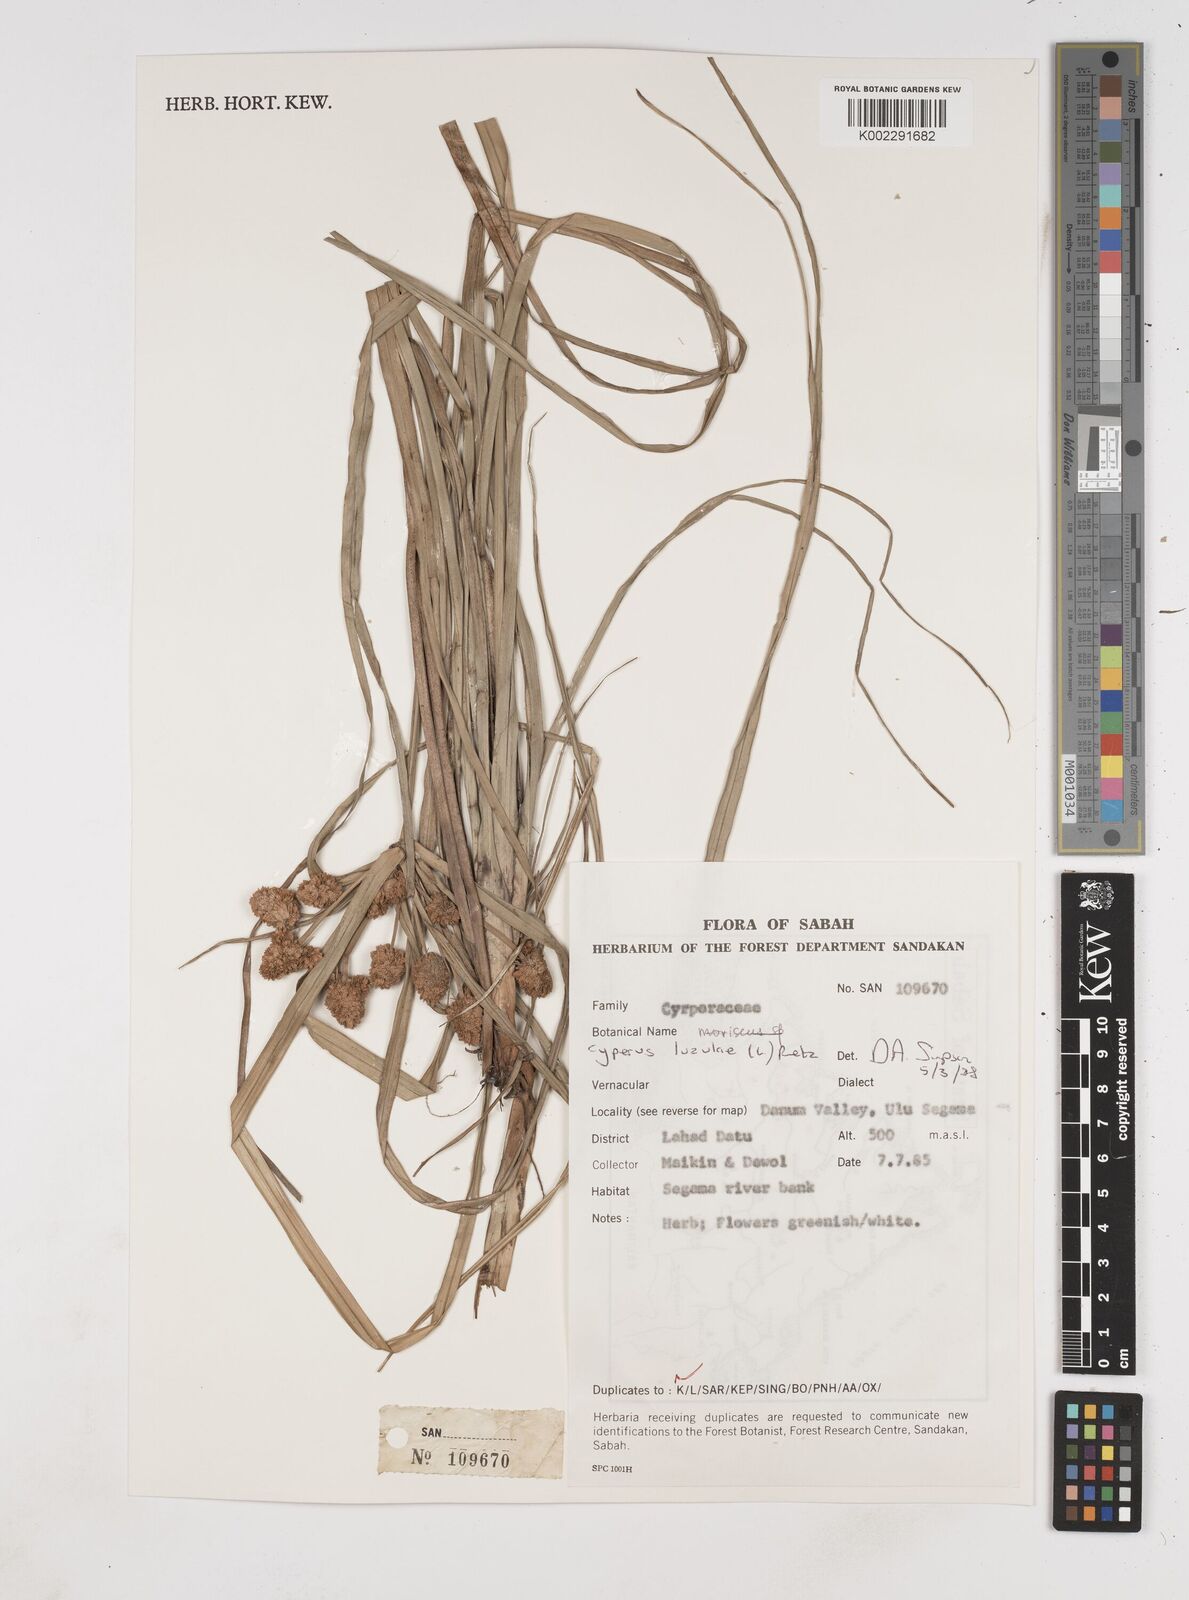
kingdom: Plantae
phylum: Tracheophyta
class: Liliopsida
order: Poales
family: Cyperaceae
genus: Cyperus
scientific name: Cyperus luzulae
